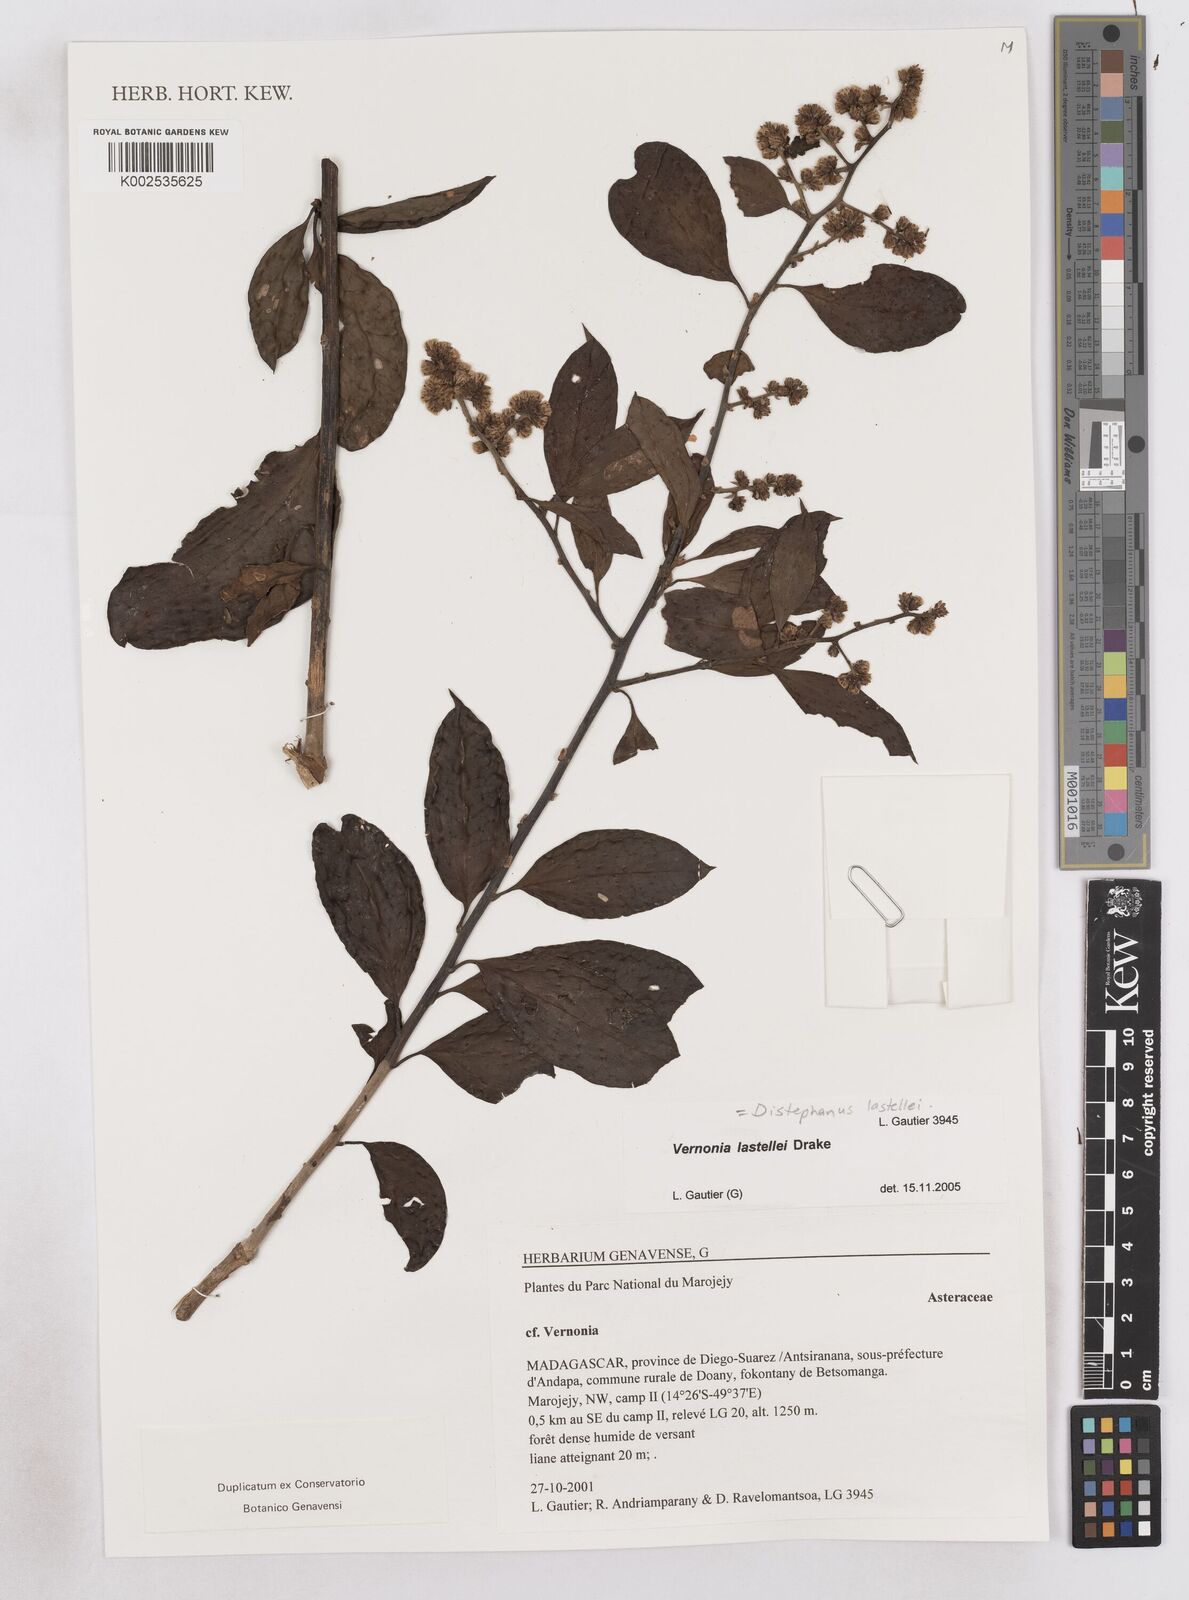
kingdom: Plantae
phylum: Tracheophyta
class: Magnoliopsida
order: Asterales
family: Asteraceae
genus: Distephanus
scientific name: Distephanus lastellei
